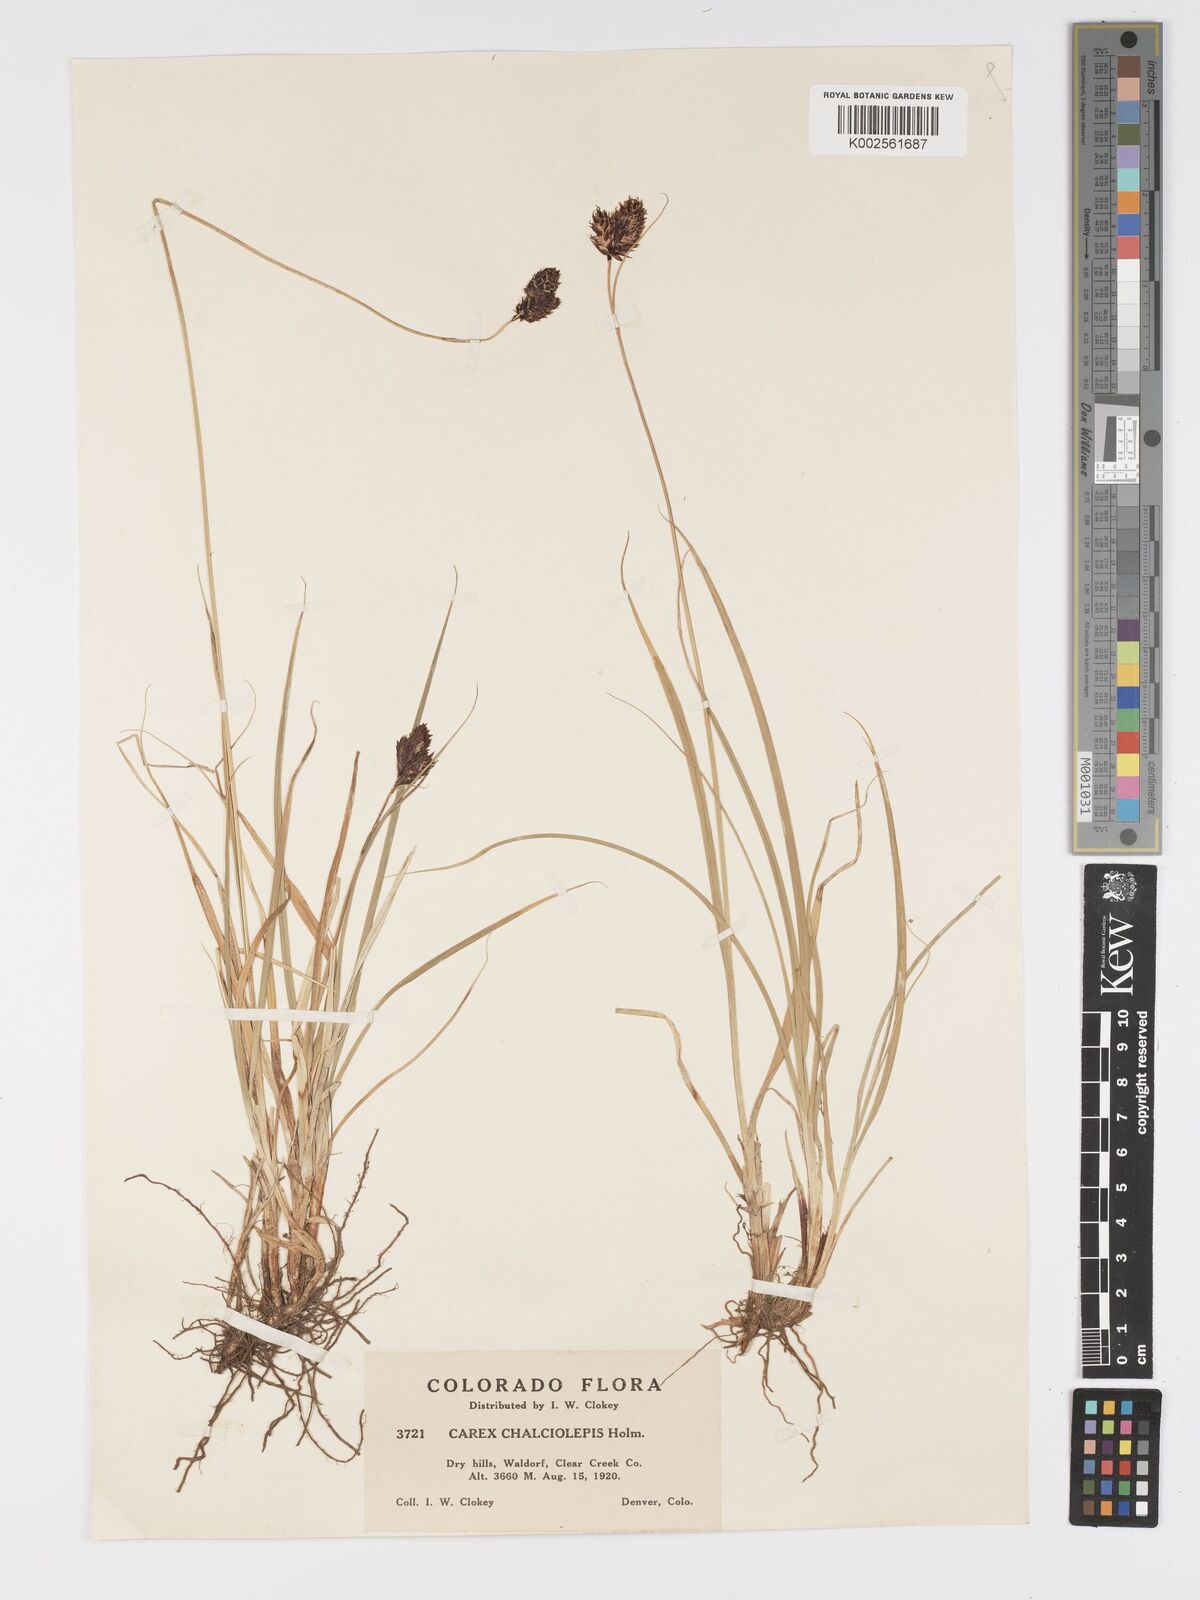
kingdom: Plantae
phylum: Tracheophyta
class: Liliopsida
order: Poales
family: Cyperaceae
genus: Carex
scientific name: Carex chalciolepis
